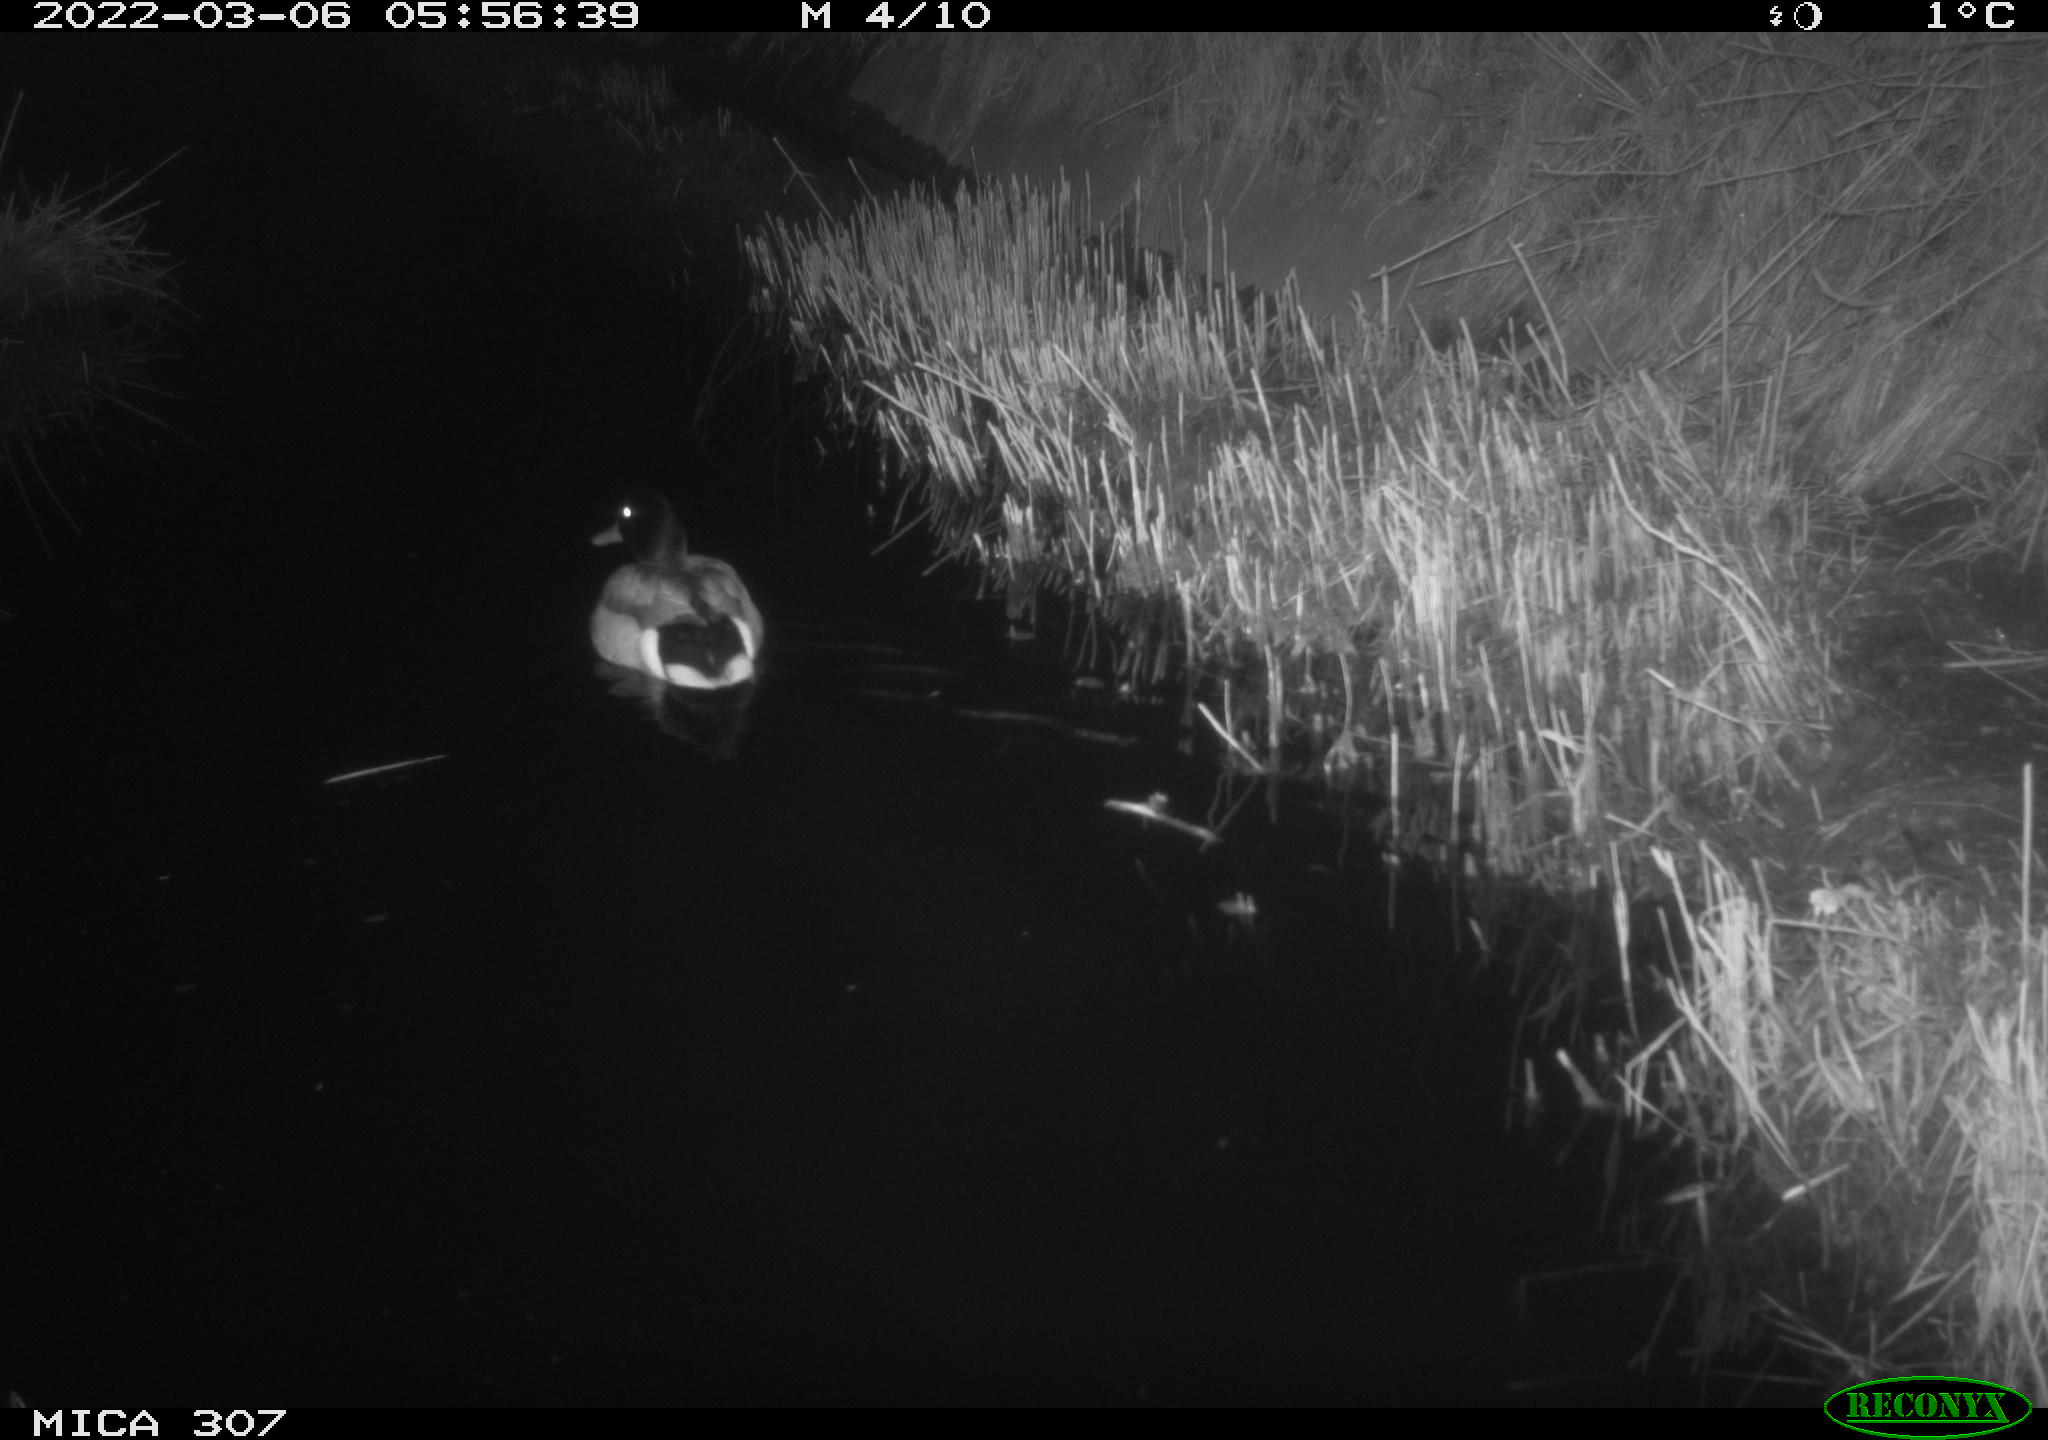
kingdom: Animalia
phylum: Chordata
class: Aves
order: Anseriformes
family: Anatidae
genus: Anas
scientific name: Anas platyrhynchos
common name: Mallard
